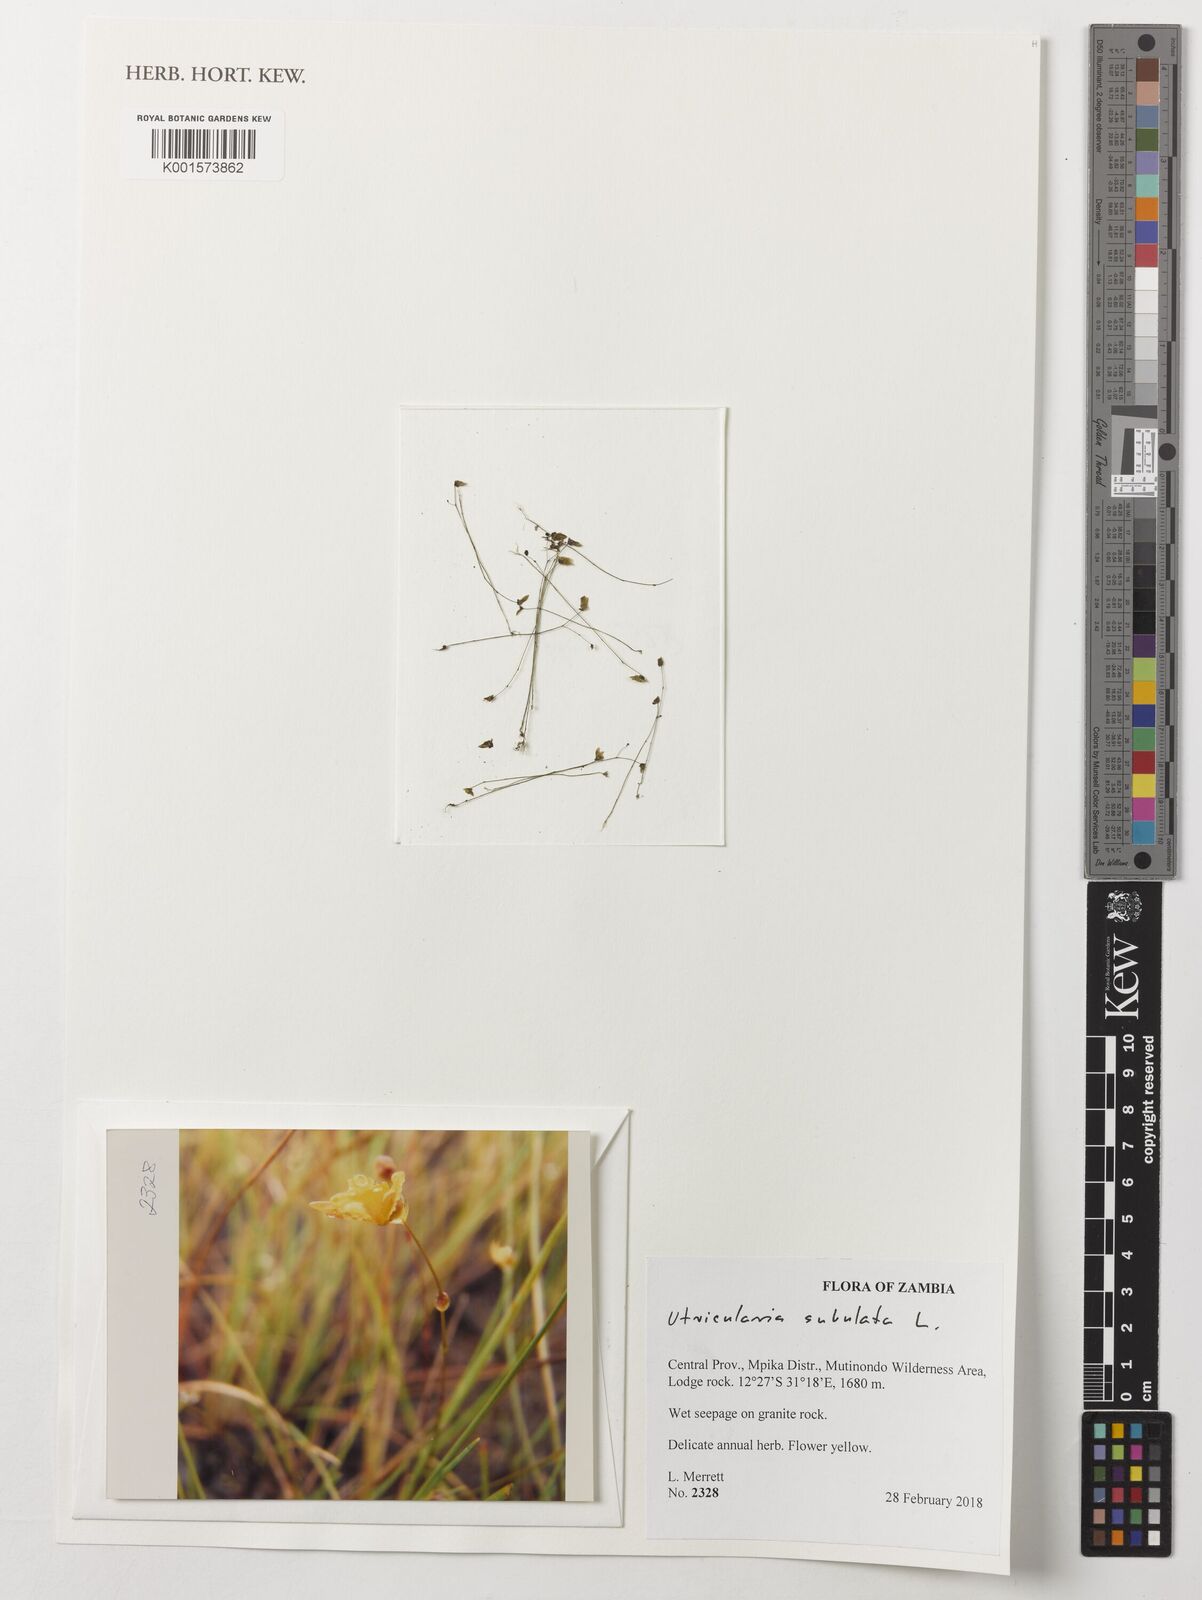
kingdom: Plantae
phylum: Tracheophyta
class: Magnoliopsida
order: Lamiales
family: Lentibulariaceae
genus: Utricularia
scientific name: Utricularia subulata
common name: Tiny bladderwort
